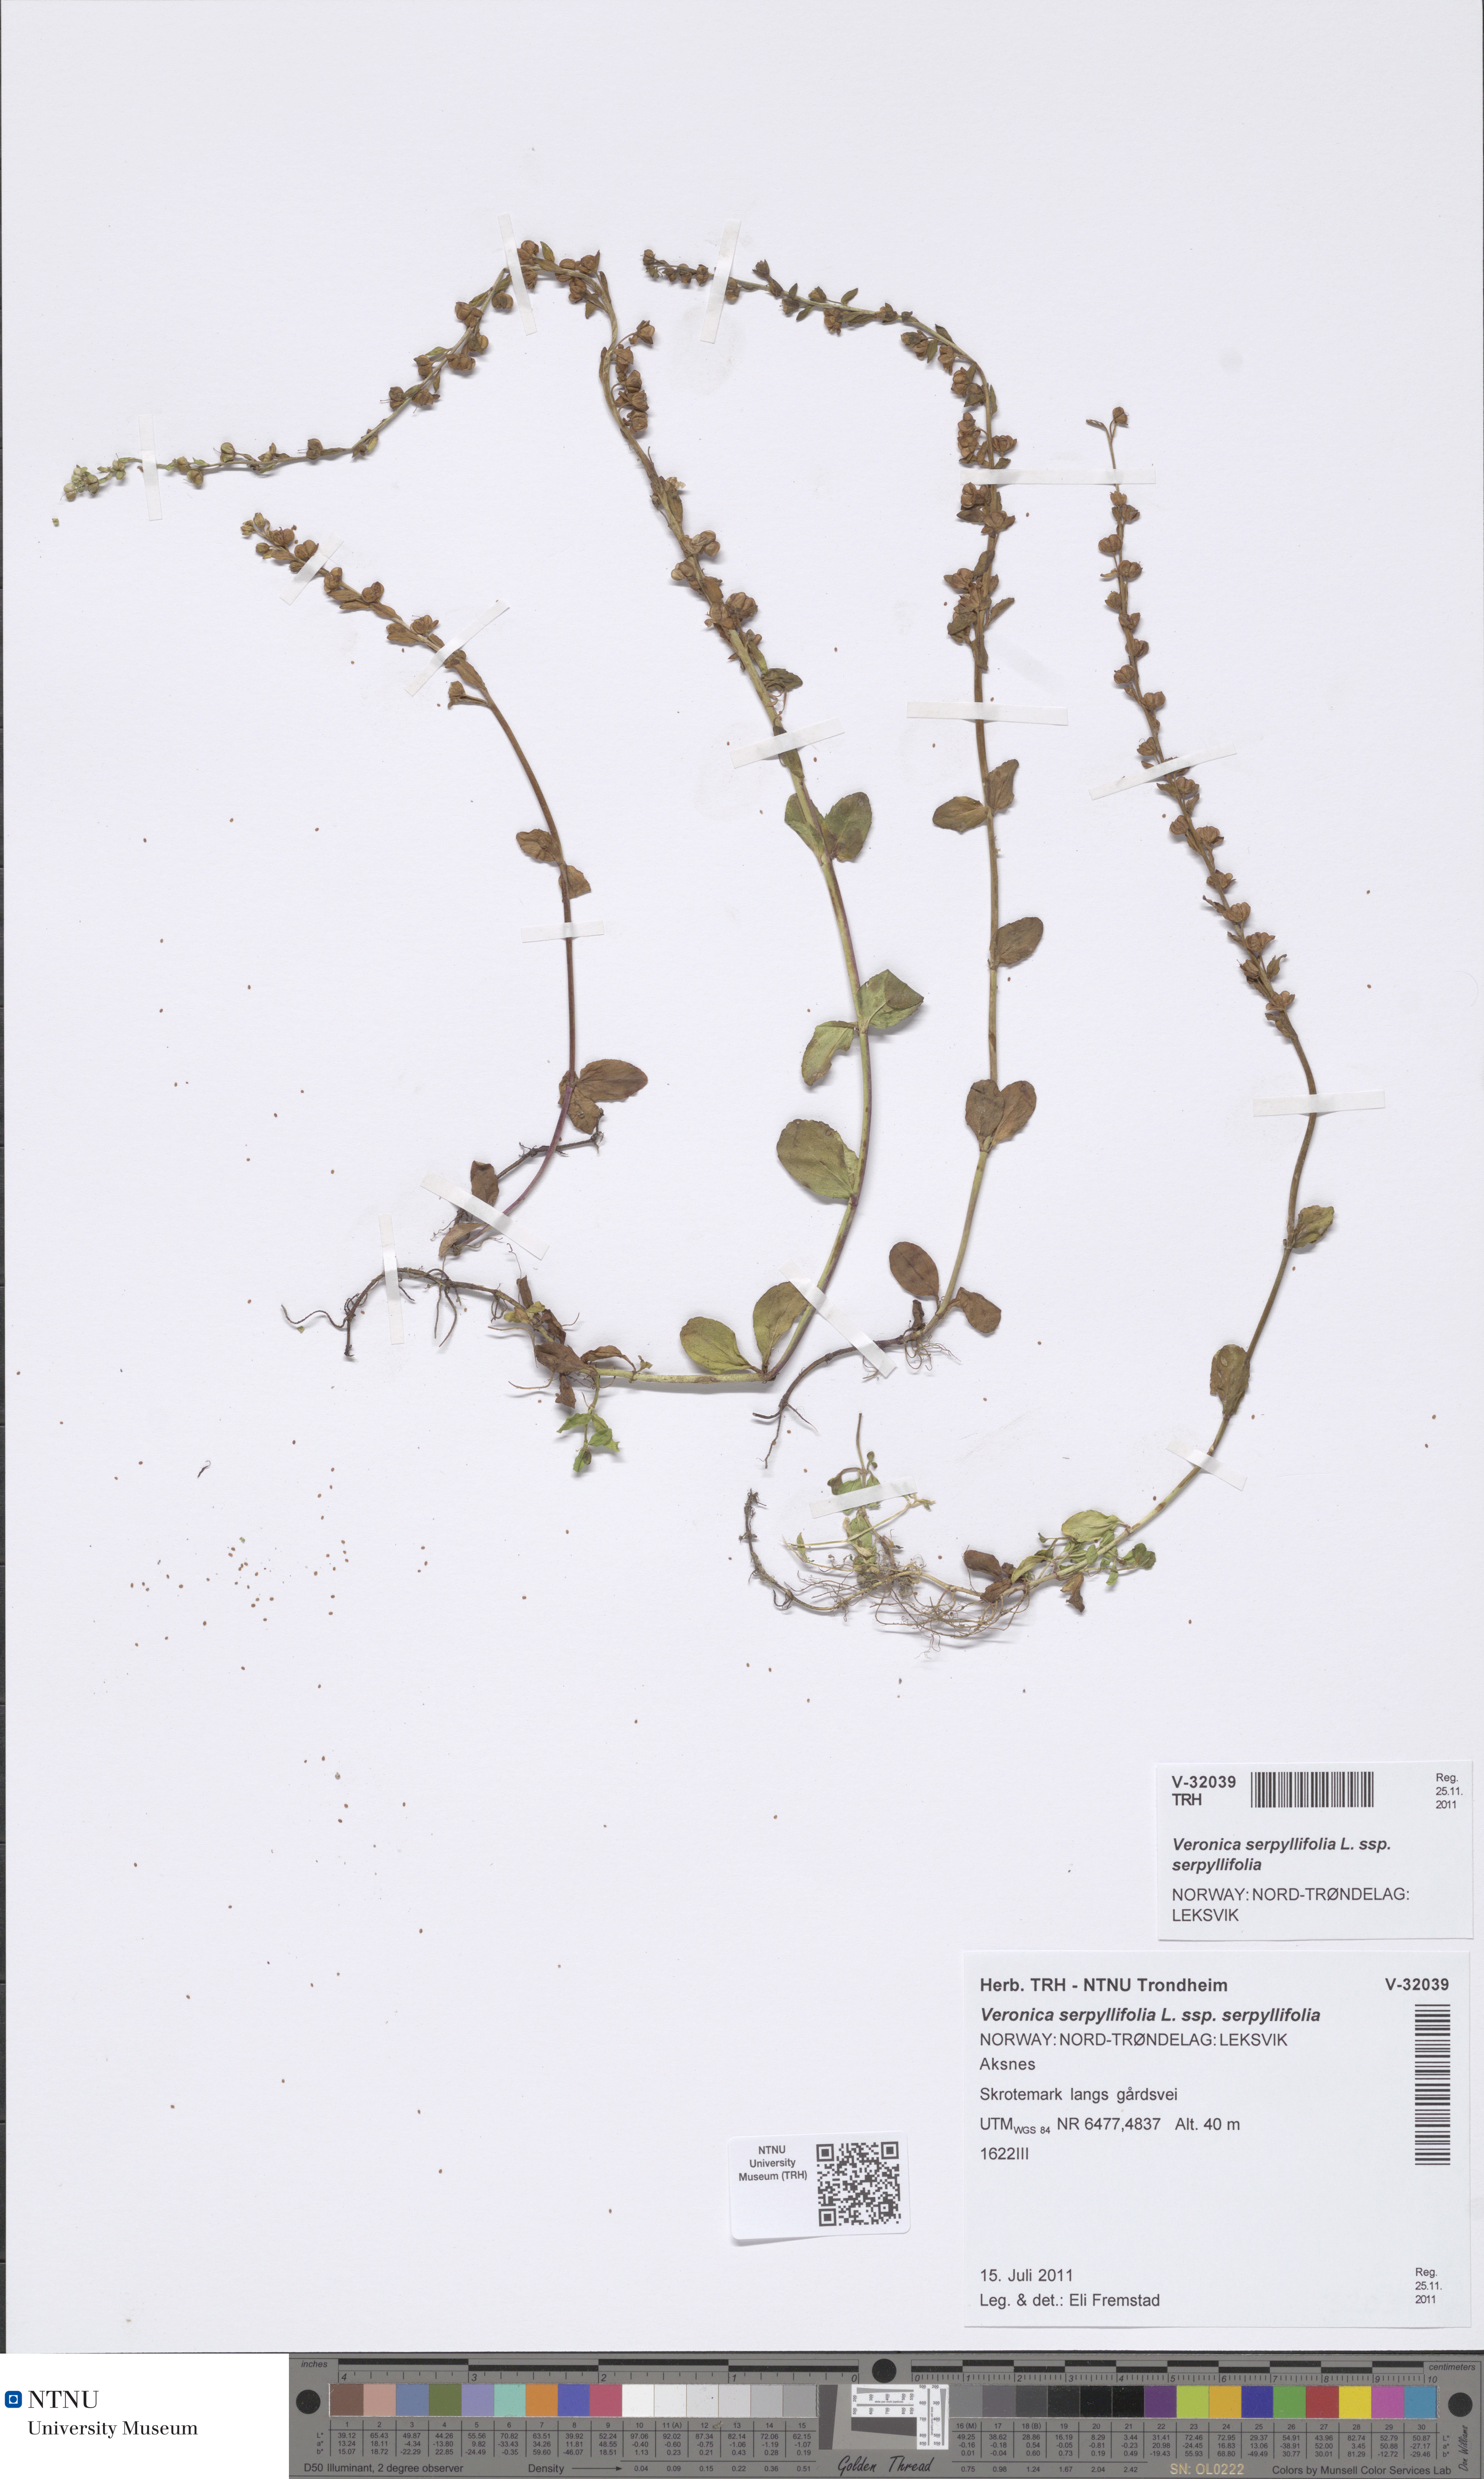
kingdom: Plantae
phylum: Tracheophyta
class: Magnoliopsida
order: Lamiales
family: Plantaginaceae
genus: Veronica
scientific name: Veronica serpyllifolia
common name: Thyme-leaved speedwell
